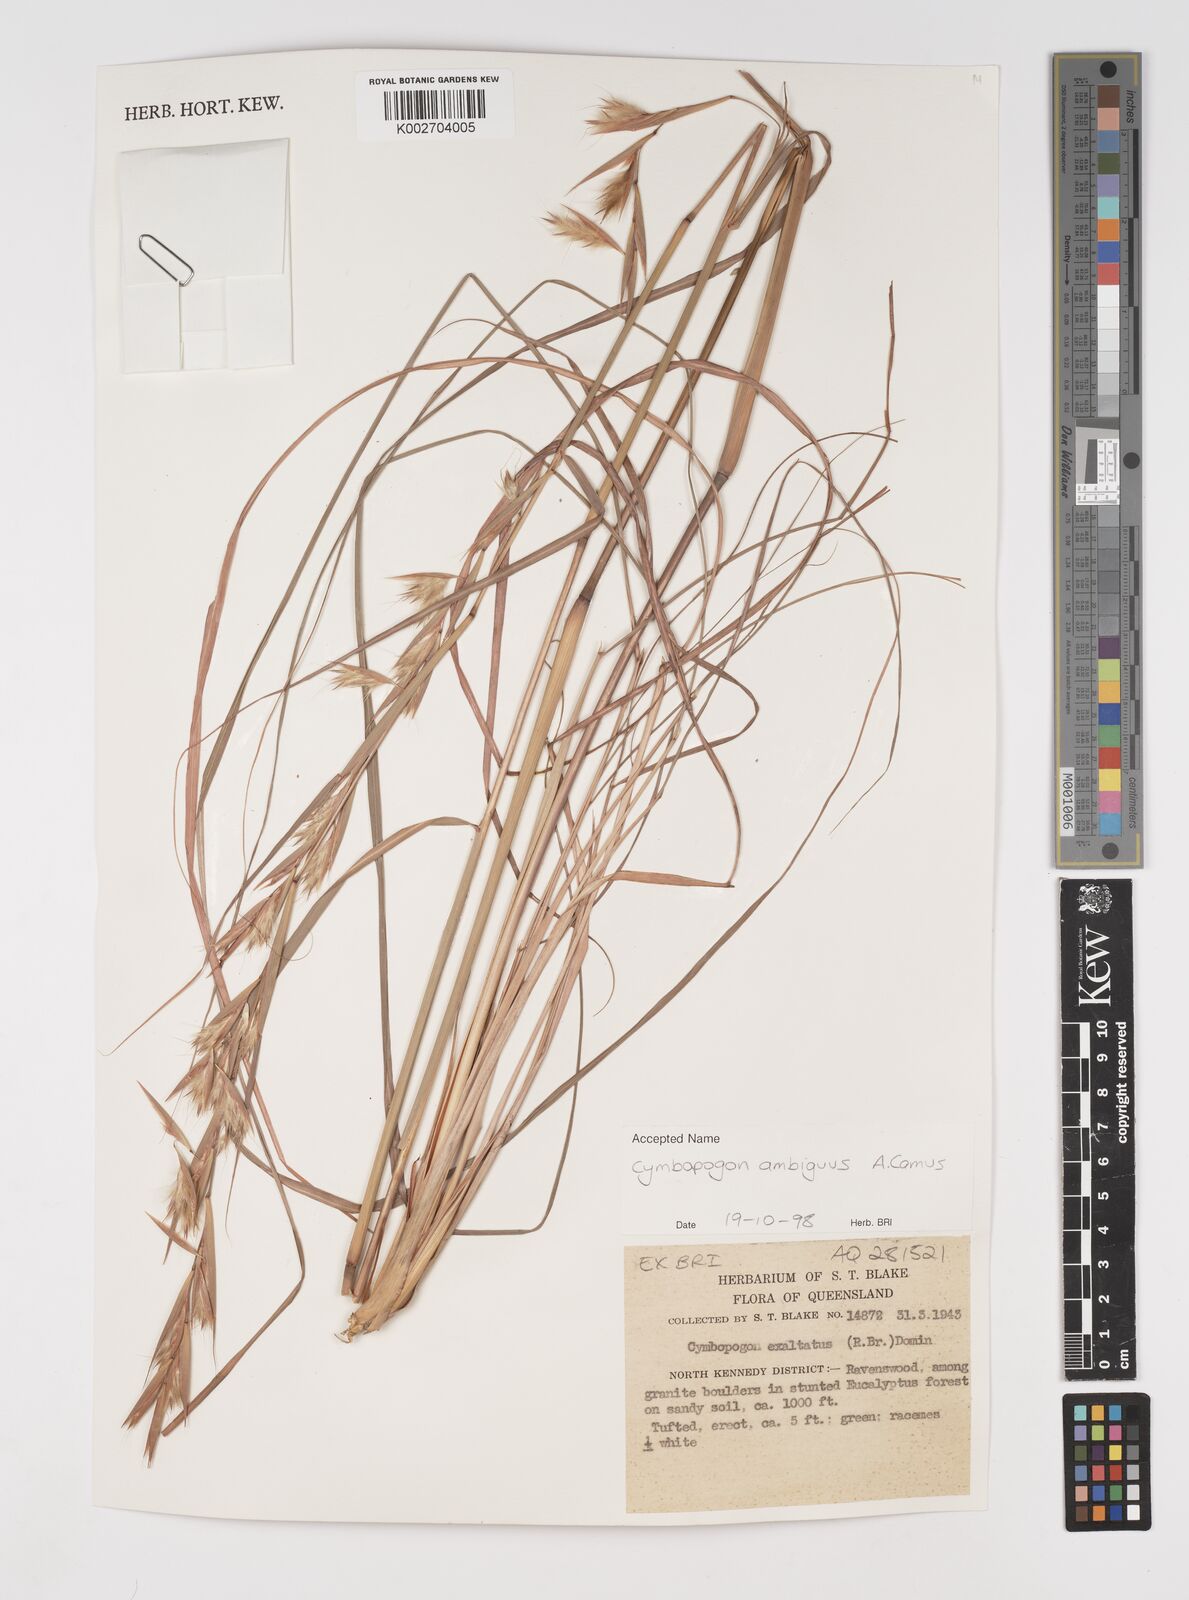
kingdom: Plantae
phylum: Tracheophyta
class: Liliopsida
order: Poales
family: Poaceae
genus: Cymbopogon
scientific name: Cymbopogon ambiguus
